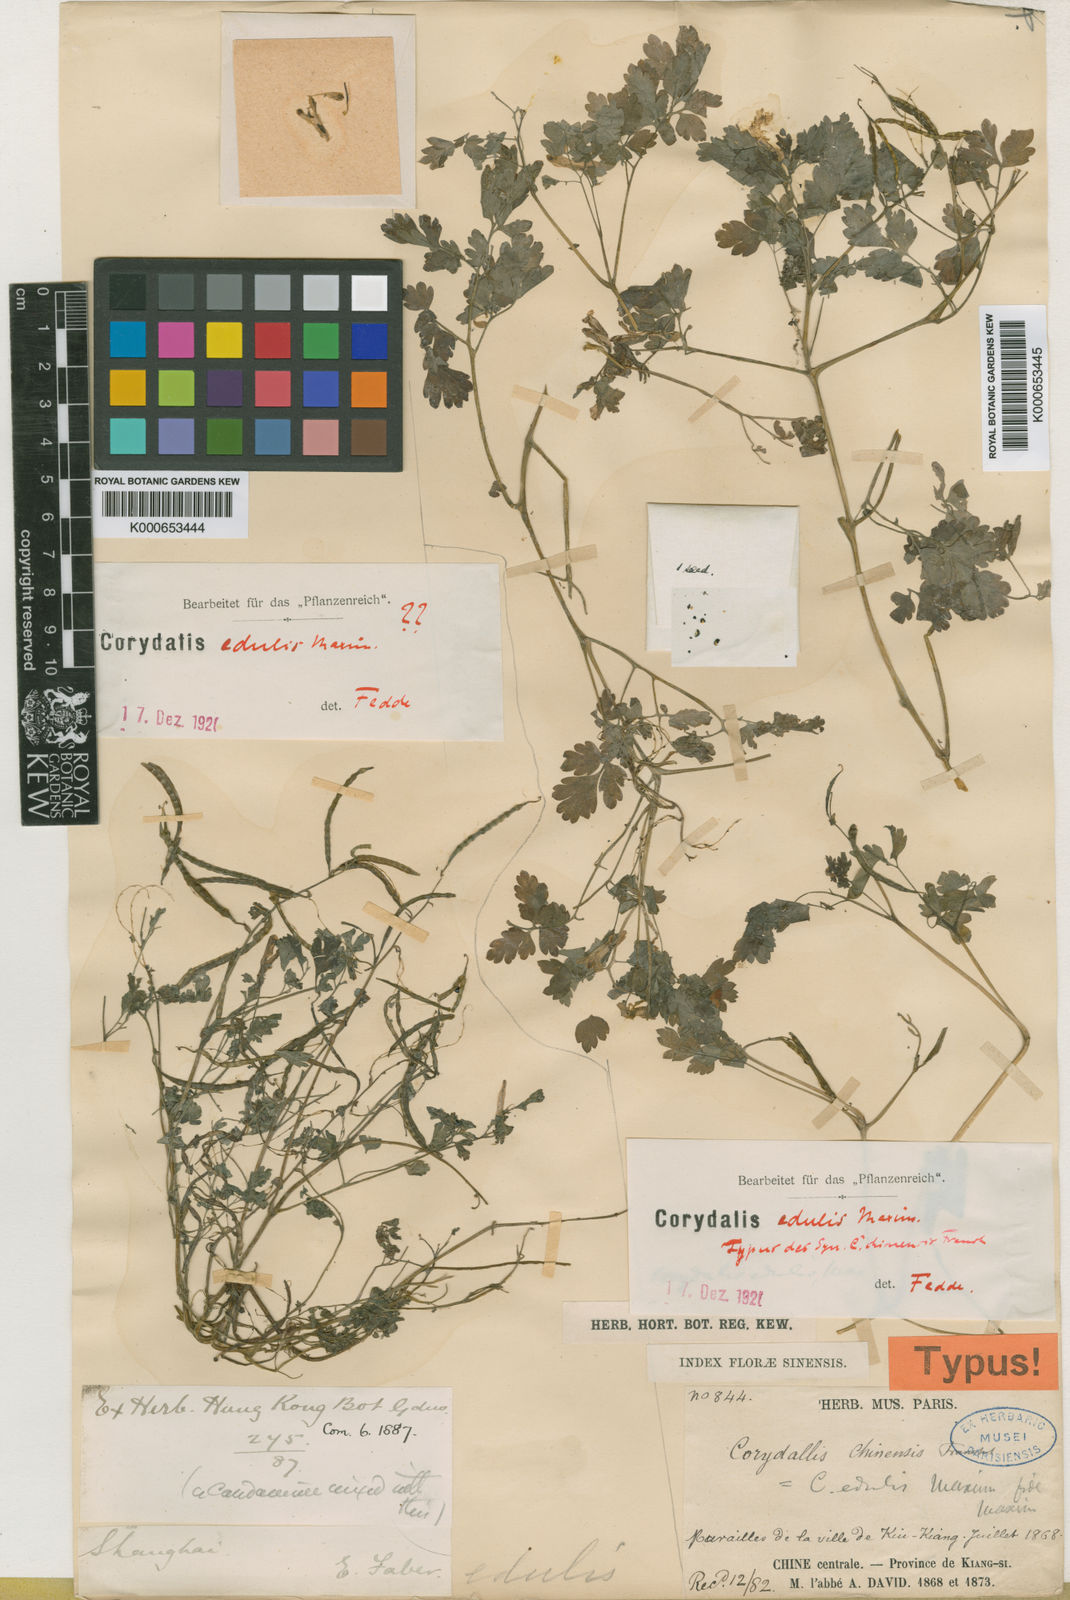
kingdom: Plantae
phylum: Tracheophyta
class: Magnoliopsida
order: Ranunculales
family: Papaveraceae
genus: Corydalis
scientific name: Corydalis edulis
